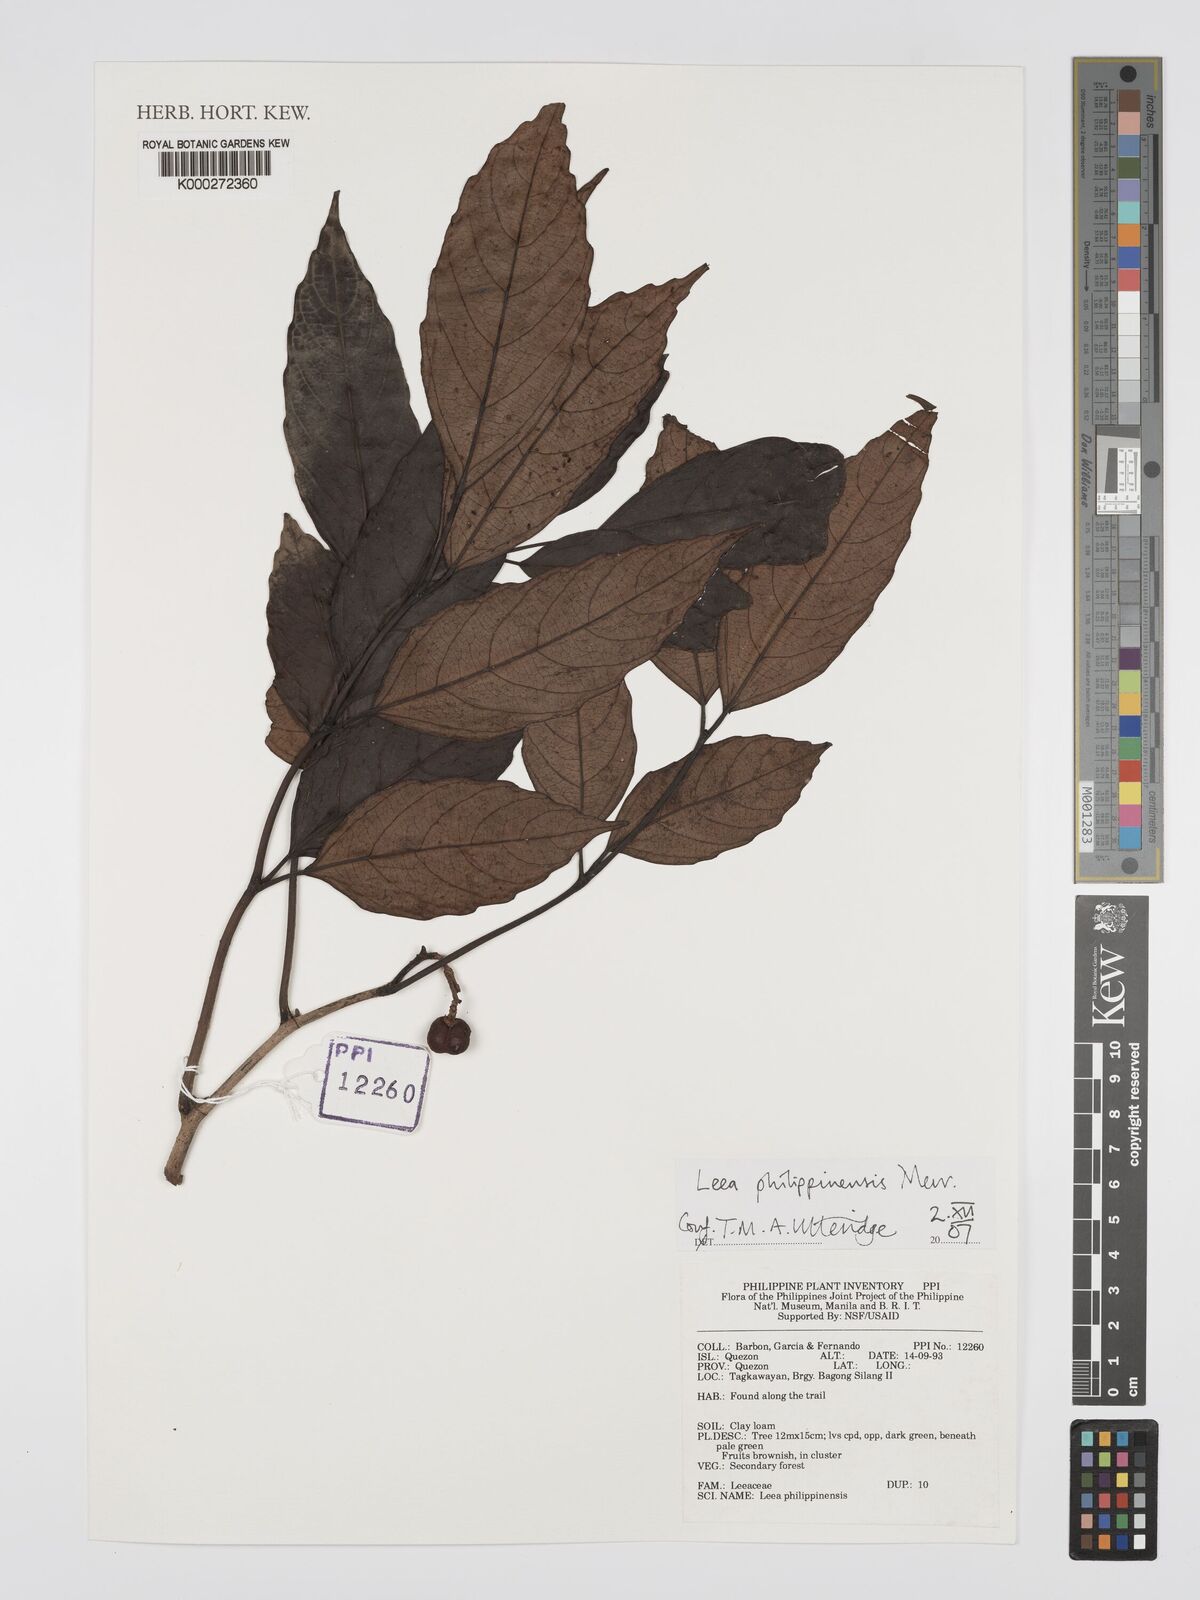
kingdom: Plantae
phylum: Tracheophyta
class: Magnoliopsida
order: Vitales
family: Vitaceae
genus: Leea
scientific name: Leea philippinensis
